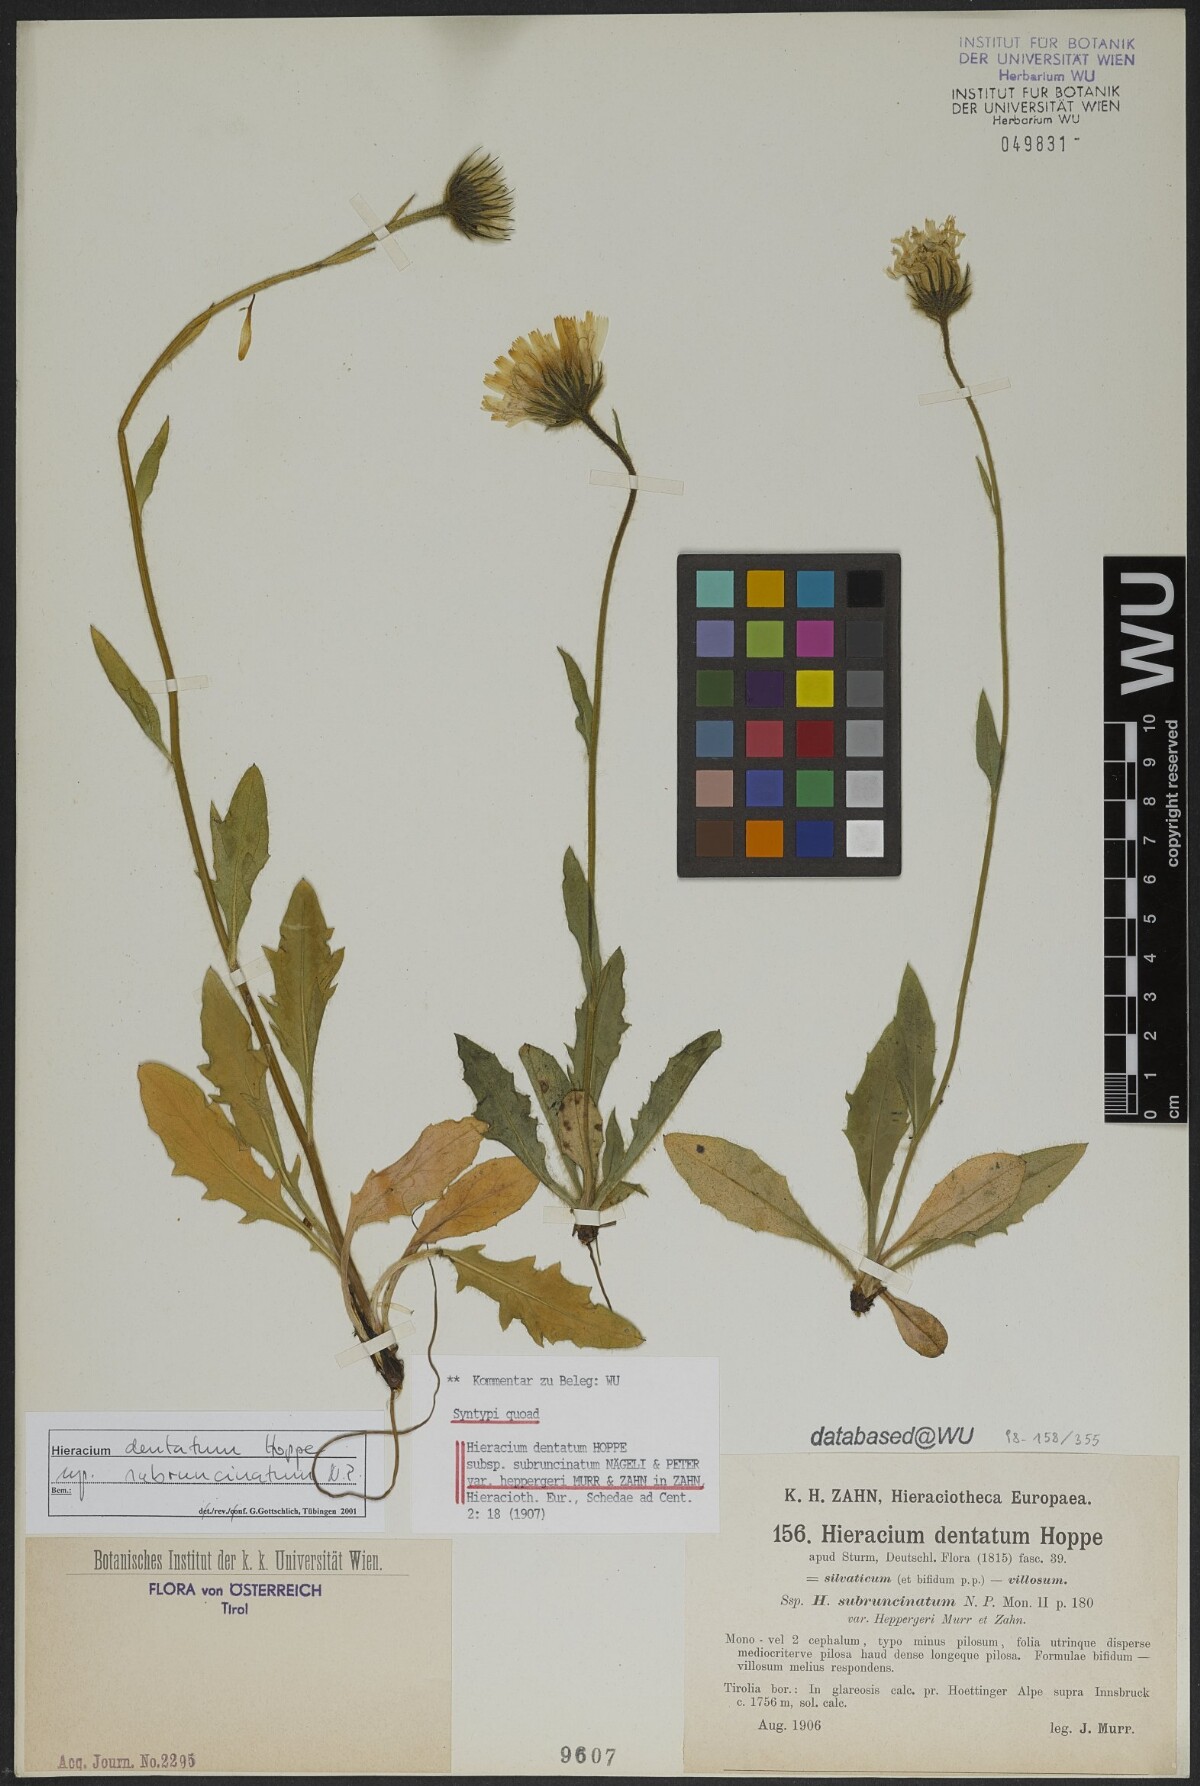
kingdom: Plantae
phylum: Tracheophyta
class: Magnoliopsida
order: Asterales
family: Asteraceae
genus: Hieracium
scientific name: Hieracium dentatum
